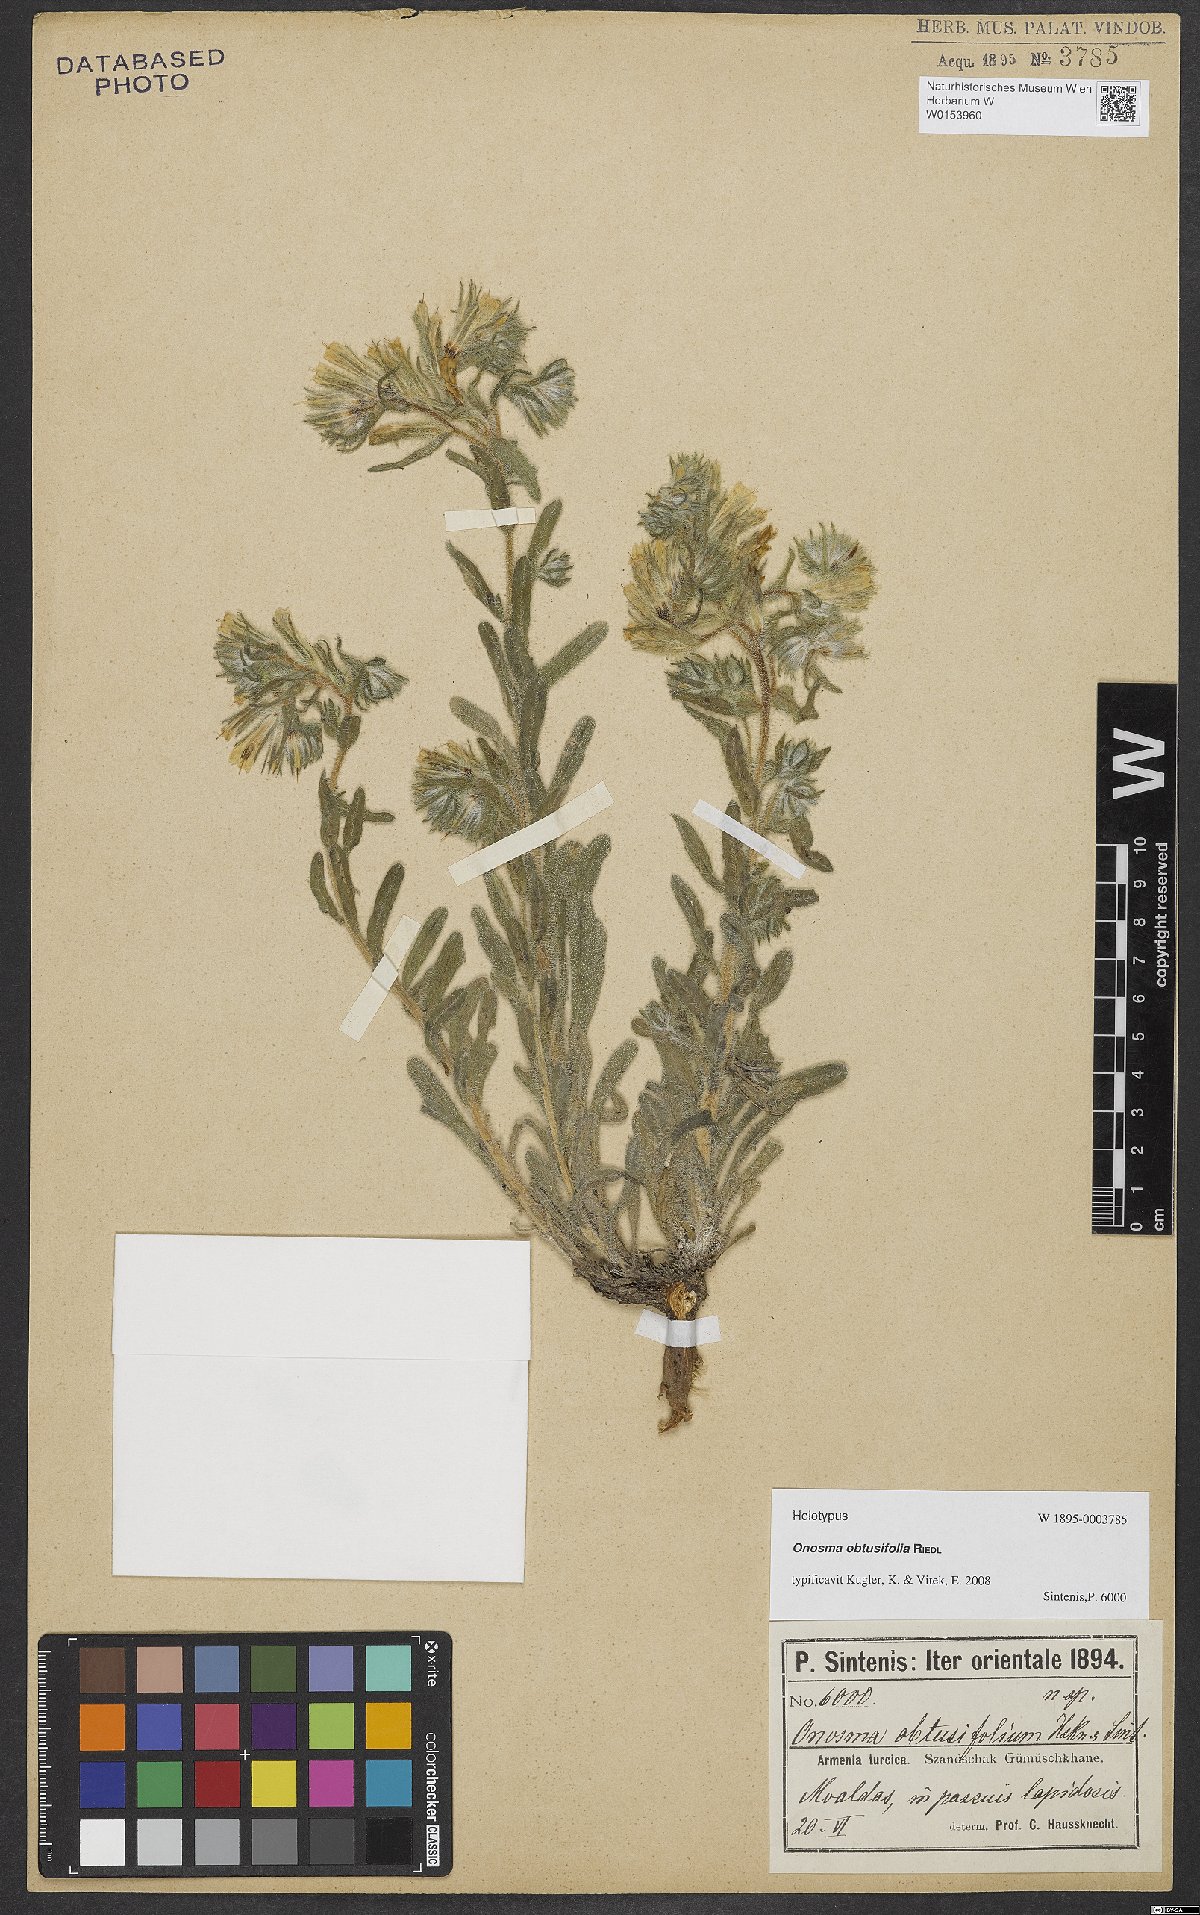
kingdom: Plantae
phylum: Tracheophyta
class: Magnoliopsida
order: Boraginales
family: Boraginaceae
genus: Onosma
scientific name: Onosma obtusifolia
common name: Amblyophyllous goldendrop
